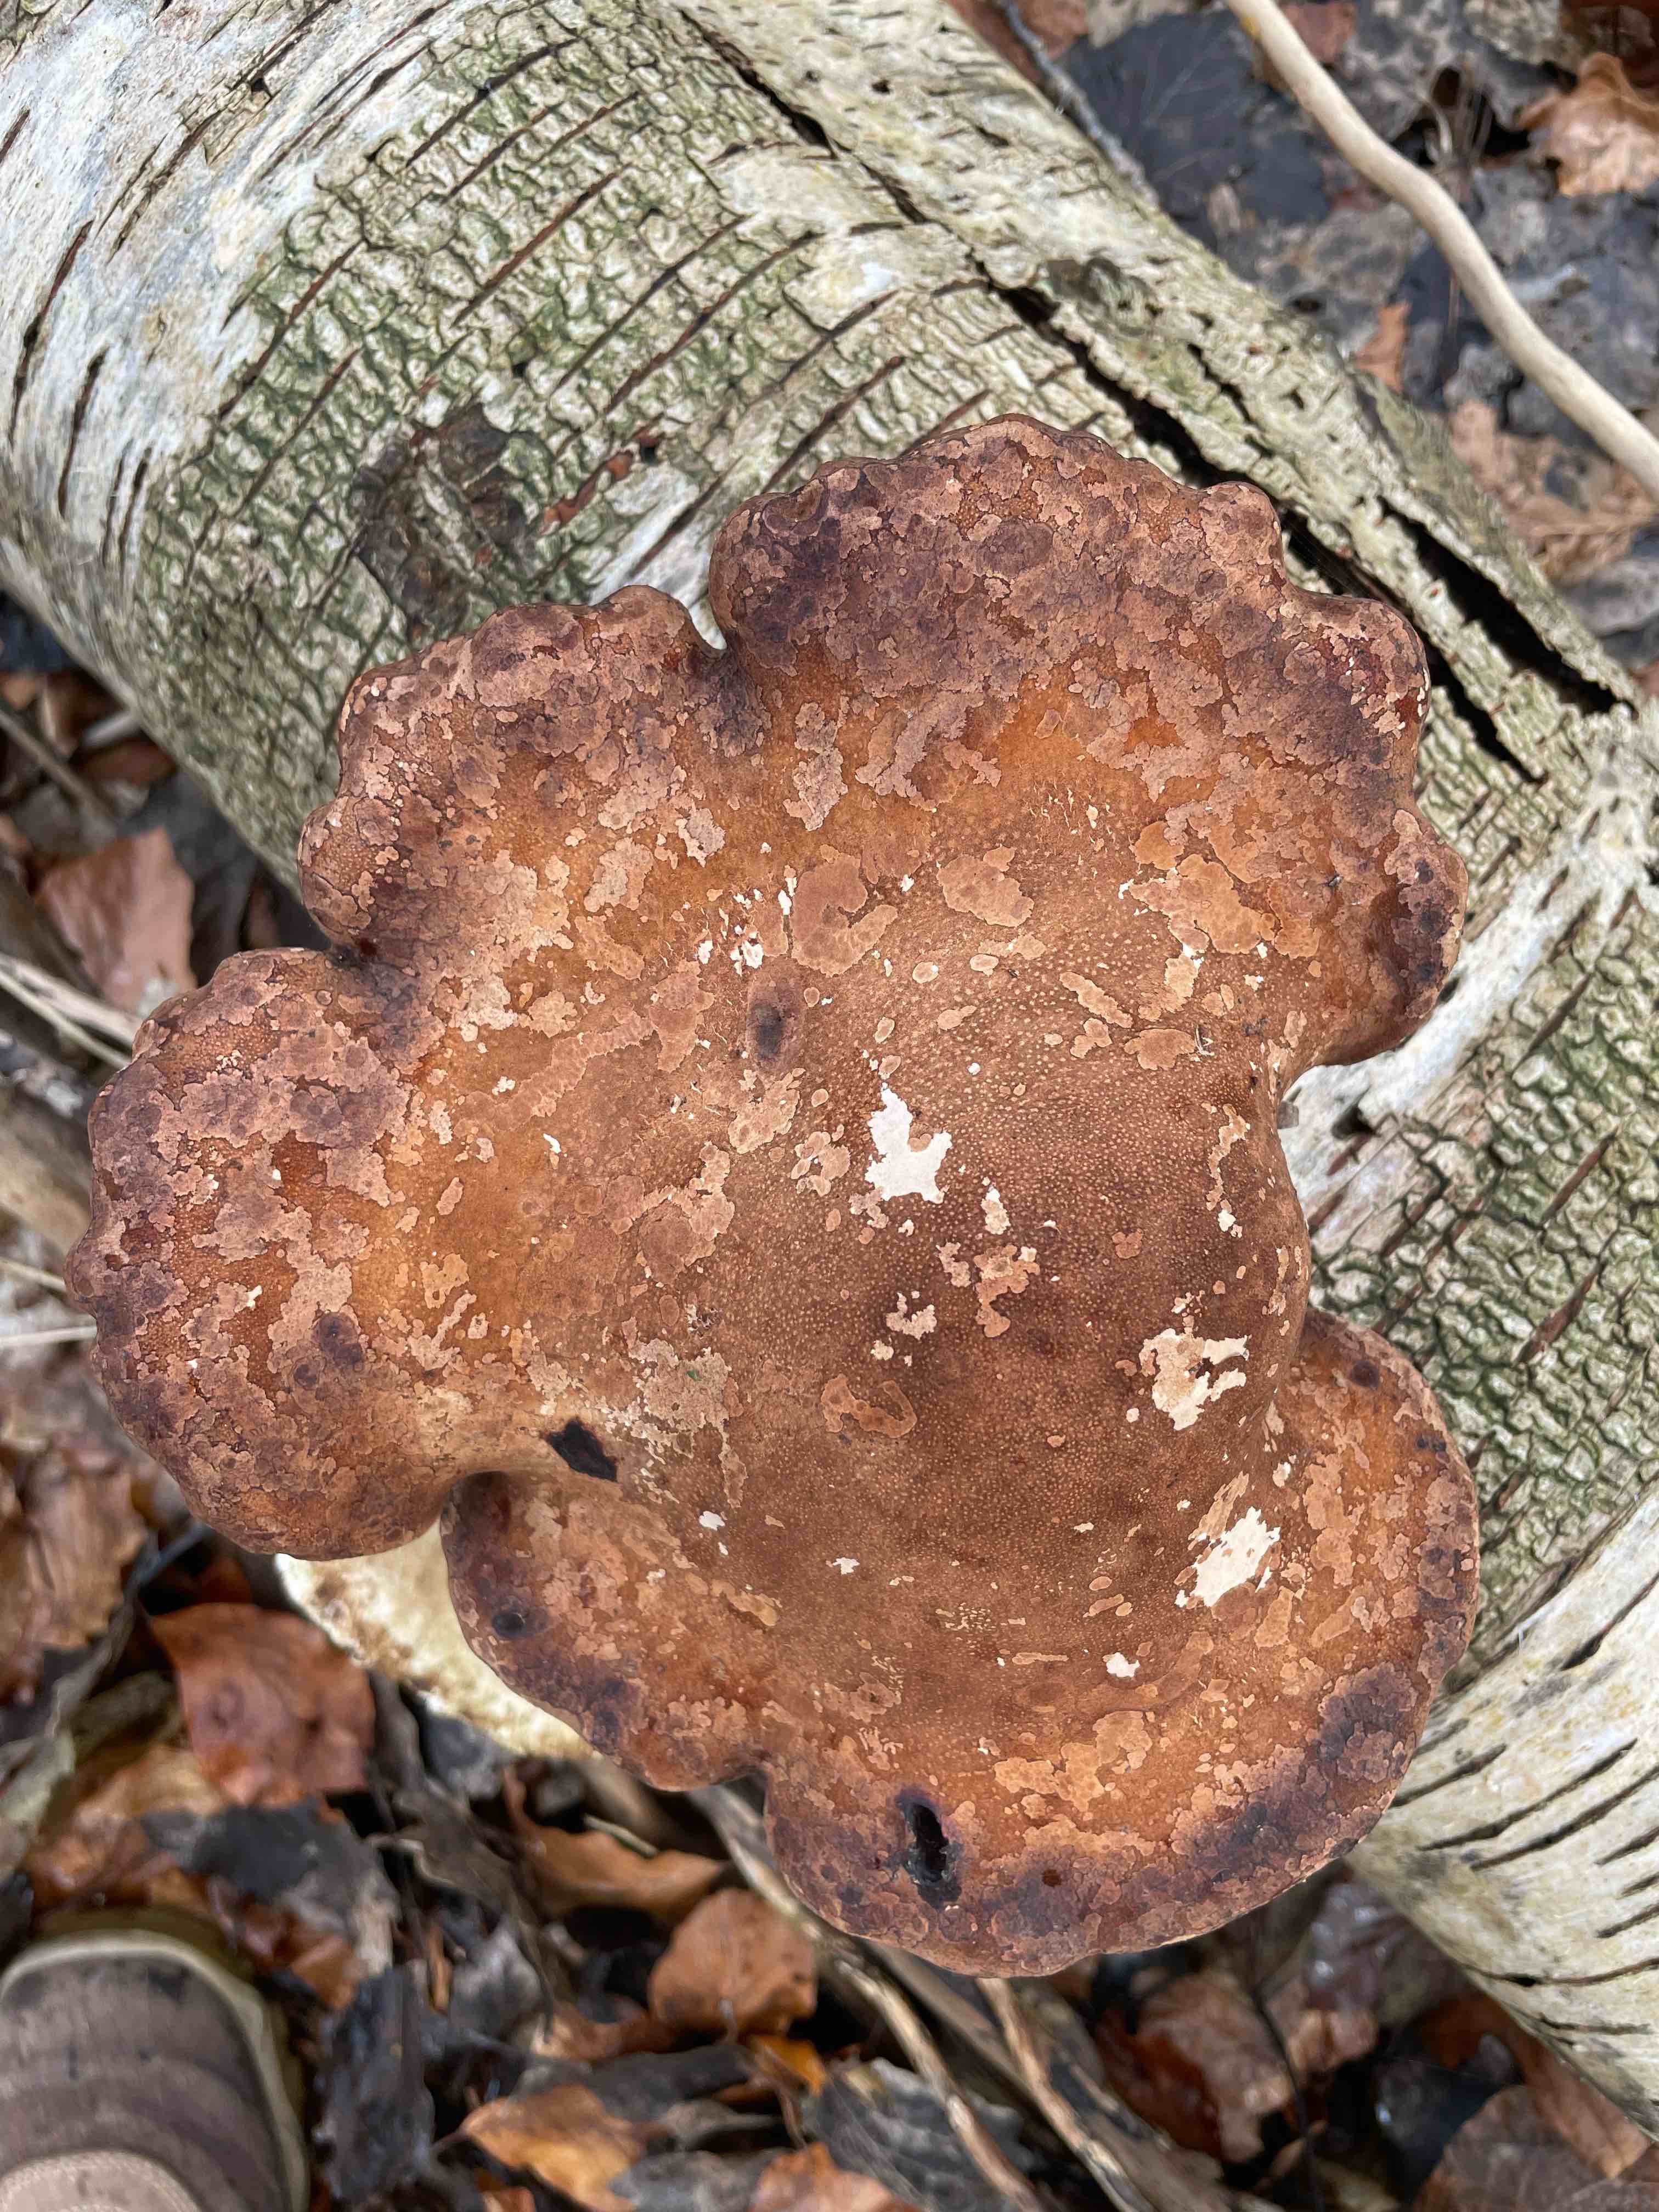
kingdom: Fungi
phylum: Basidiomycota
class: Agaricomycetes
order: Polyporales
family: Fomitopsidaceae
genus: Fomitopsis
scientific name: Fomitopsis betulina
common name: birkeporesvamp
